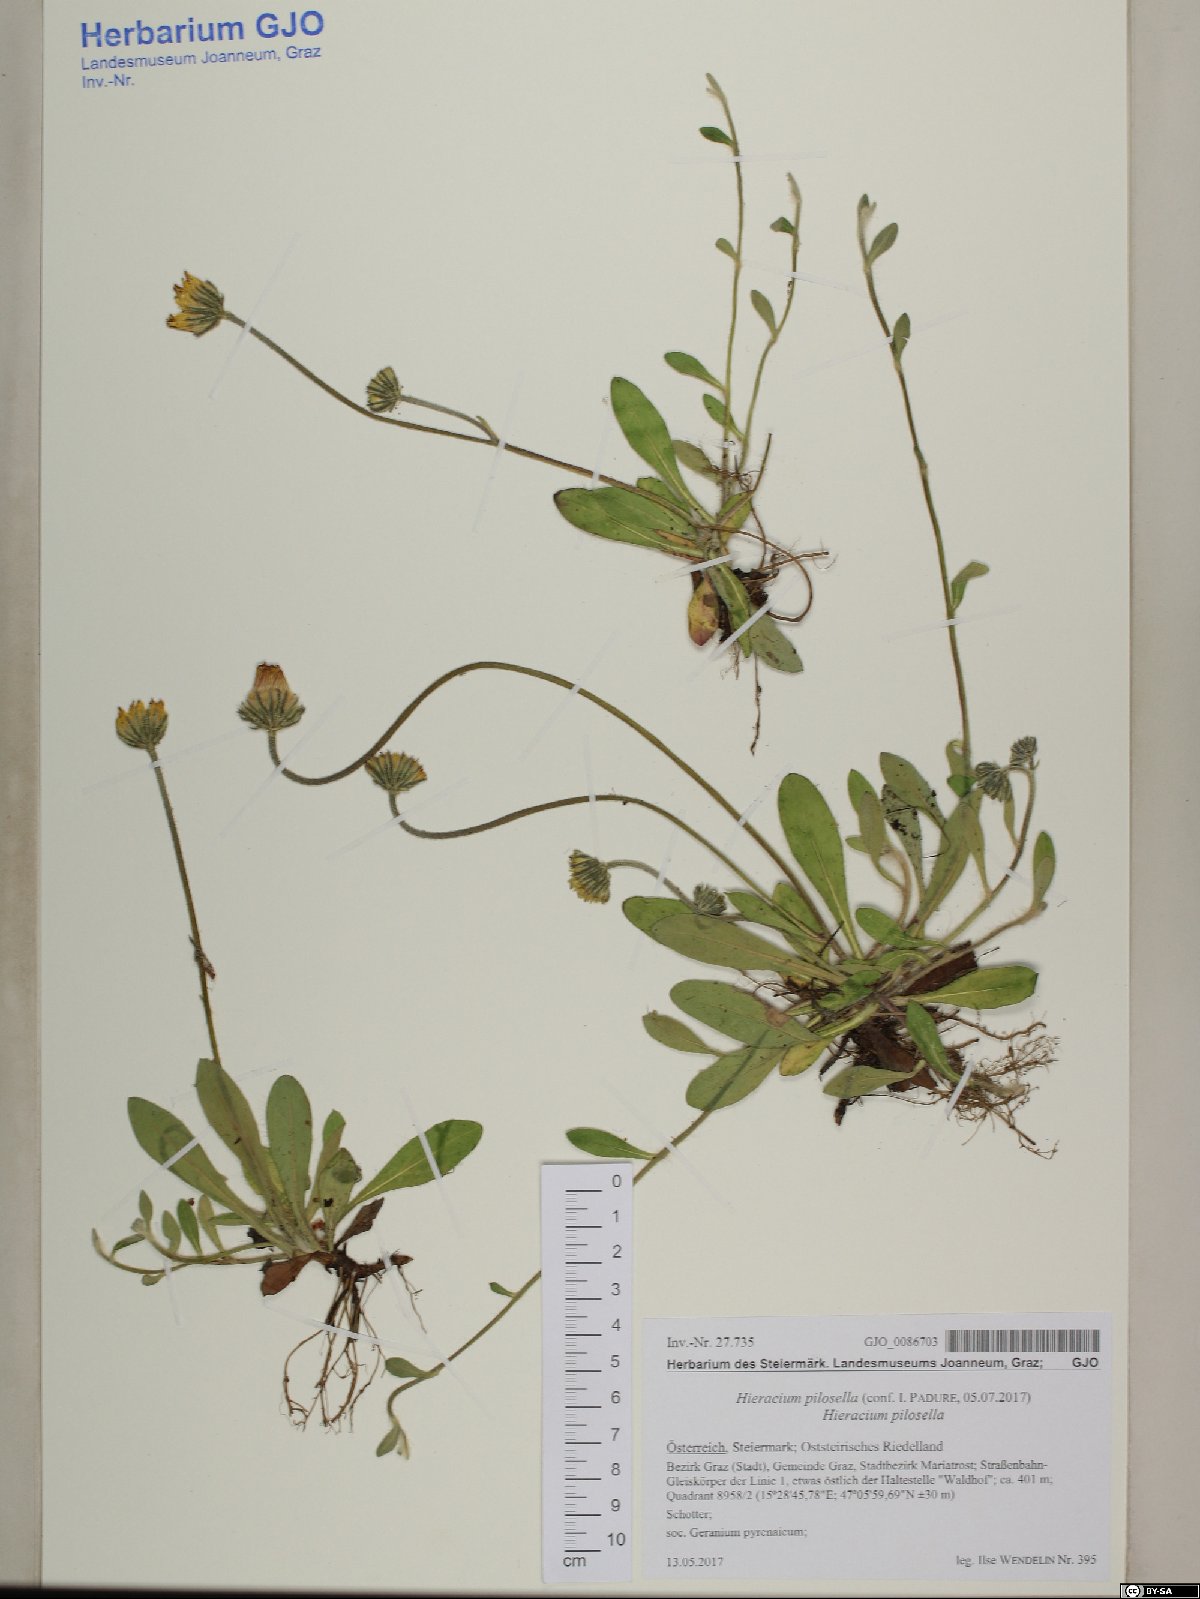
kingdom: Plantae
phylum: Tracheophyta
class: Magnoliopsida
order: Asterales
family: Asteraceae
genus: Pilosella
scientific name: Pilosella officinarum
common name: Mouse-ear hawkweed
